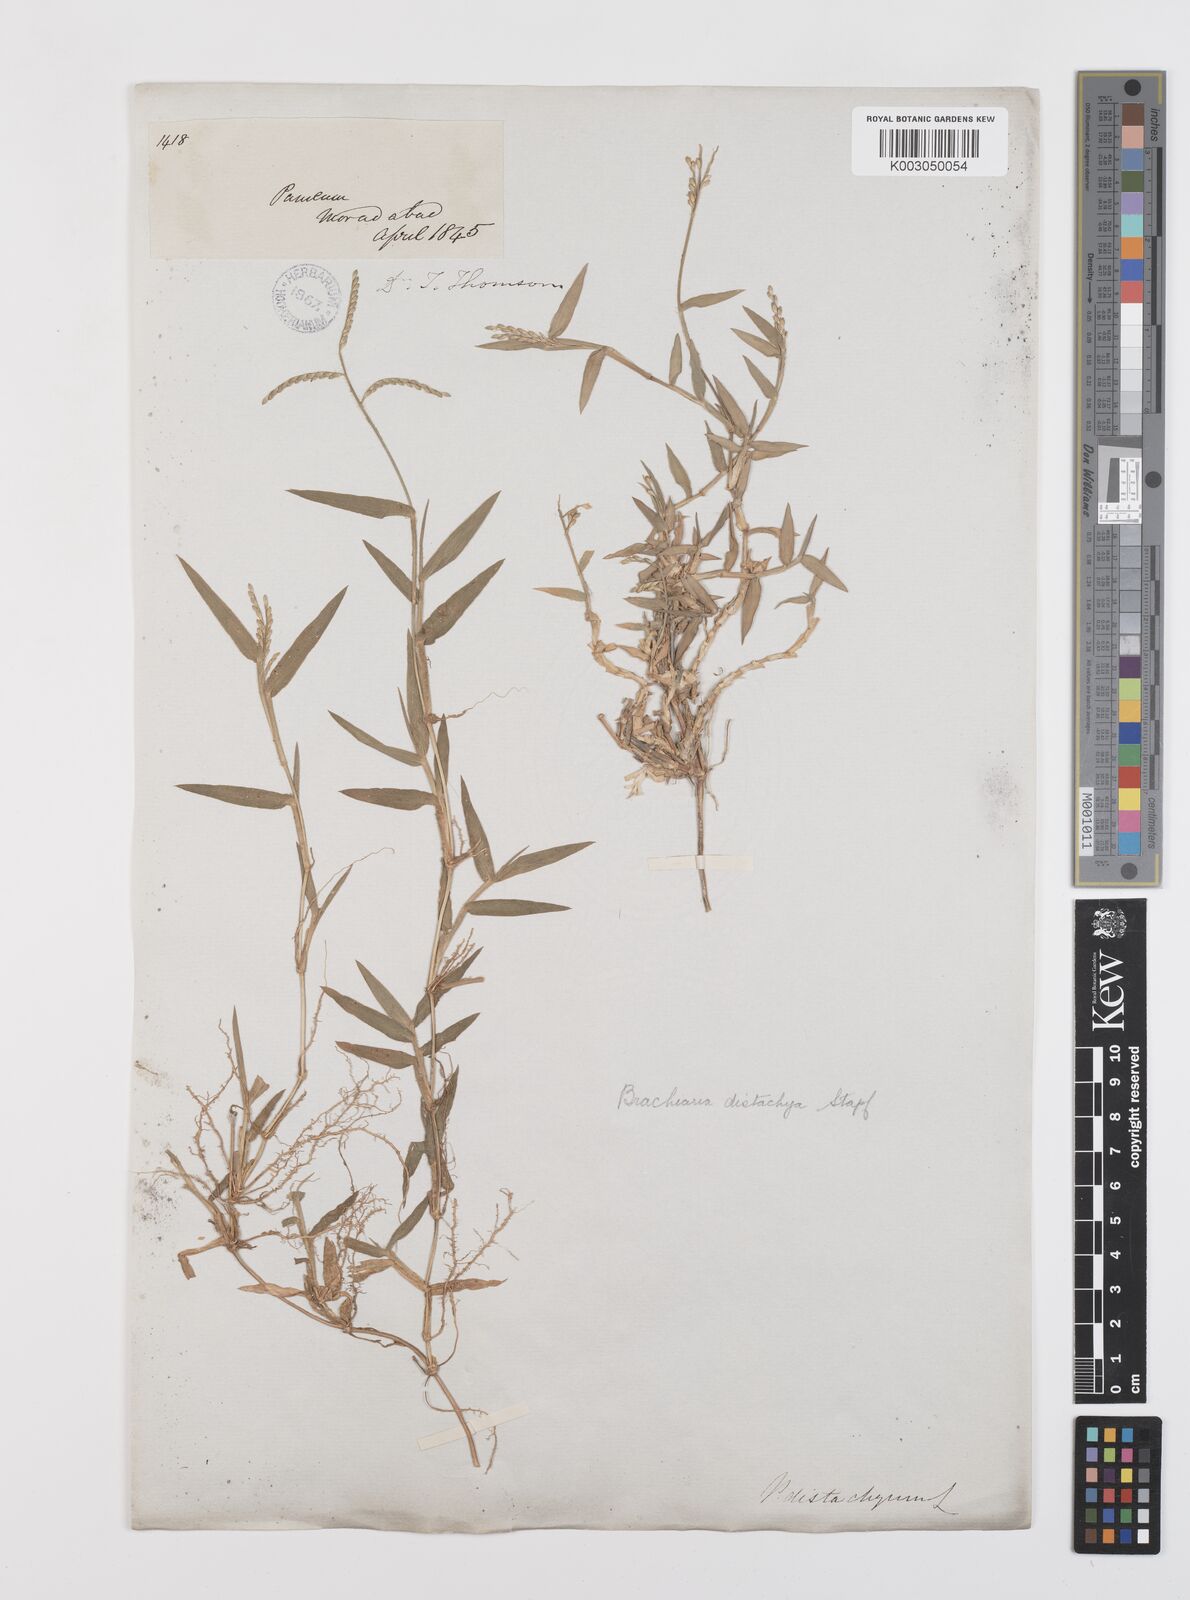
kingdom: Plantae
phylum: Tracheophyta
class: Liliopsida
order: Poales
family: Poaceae
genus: Urochloa
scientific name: Urochloa distachyos
